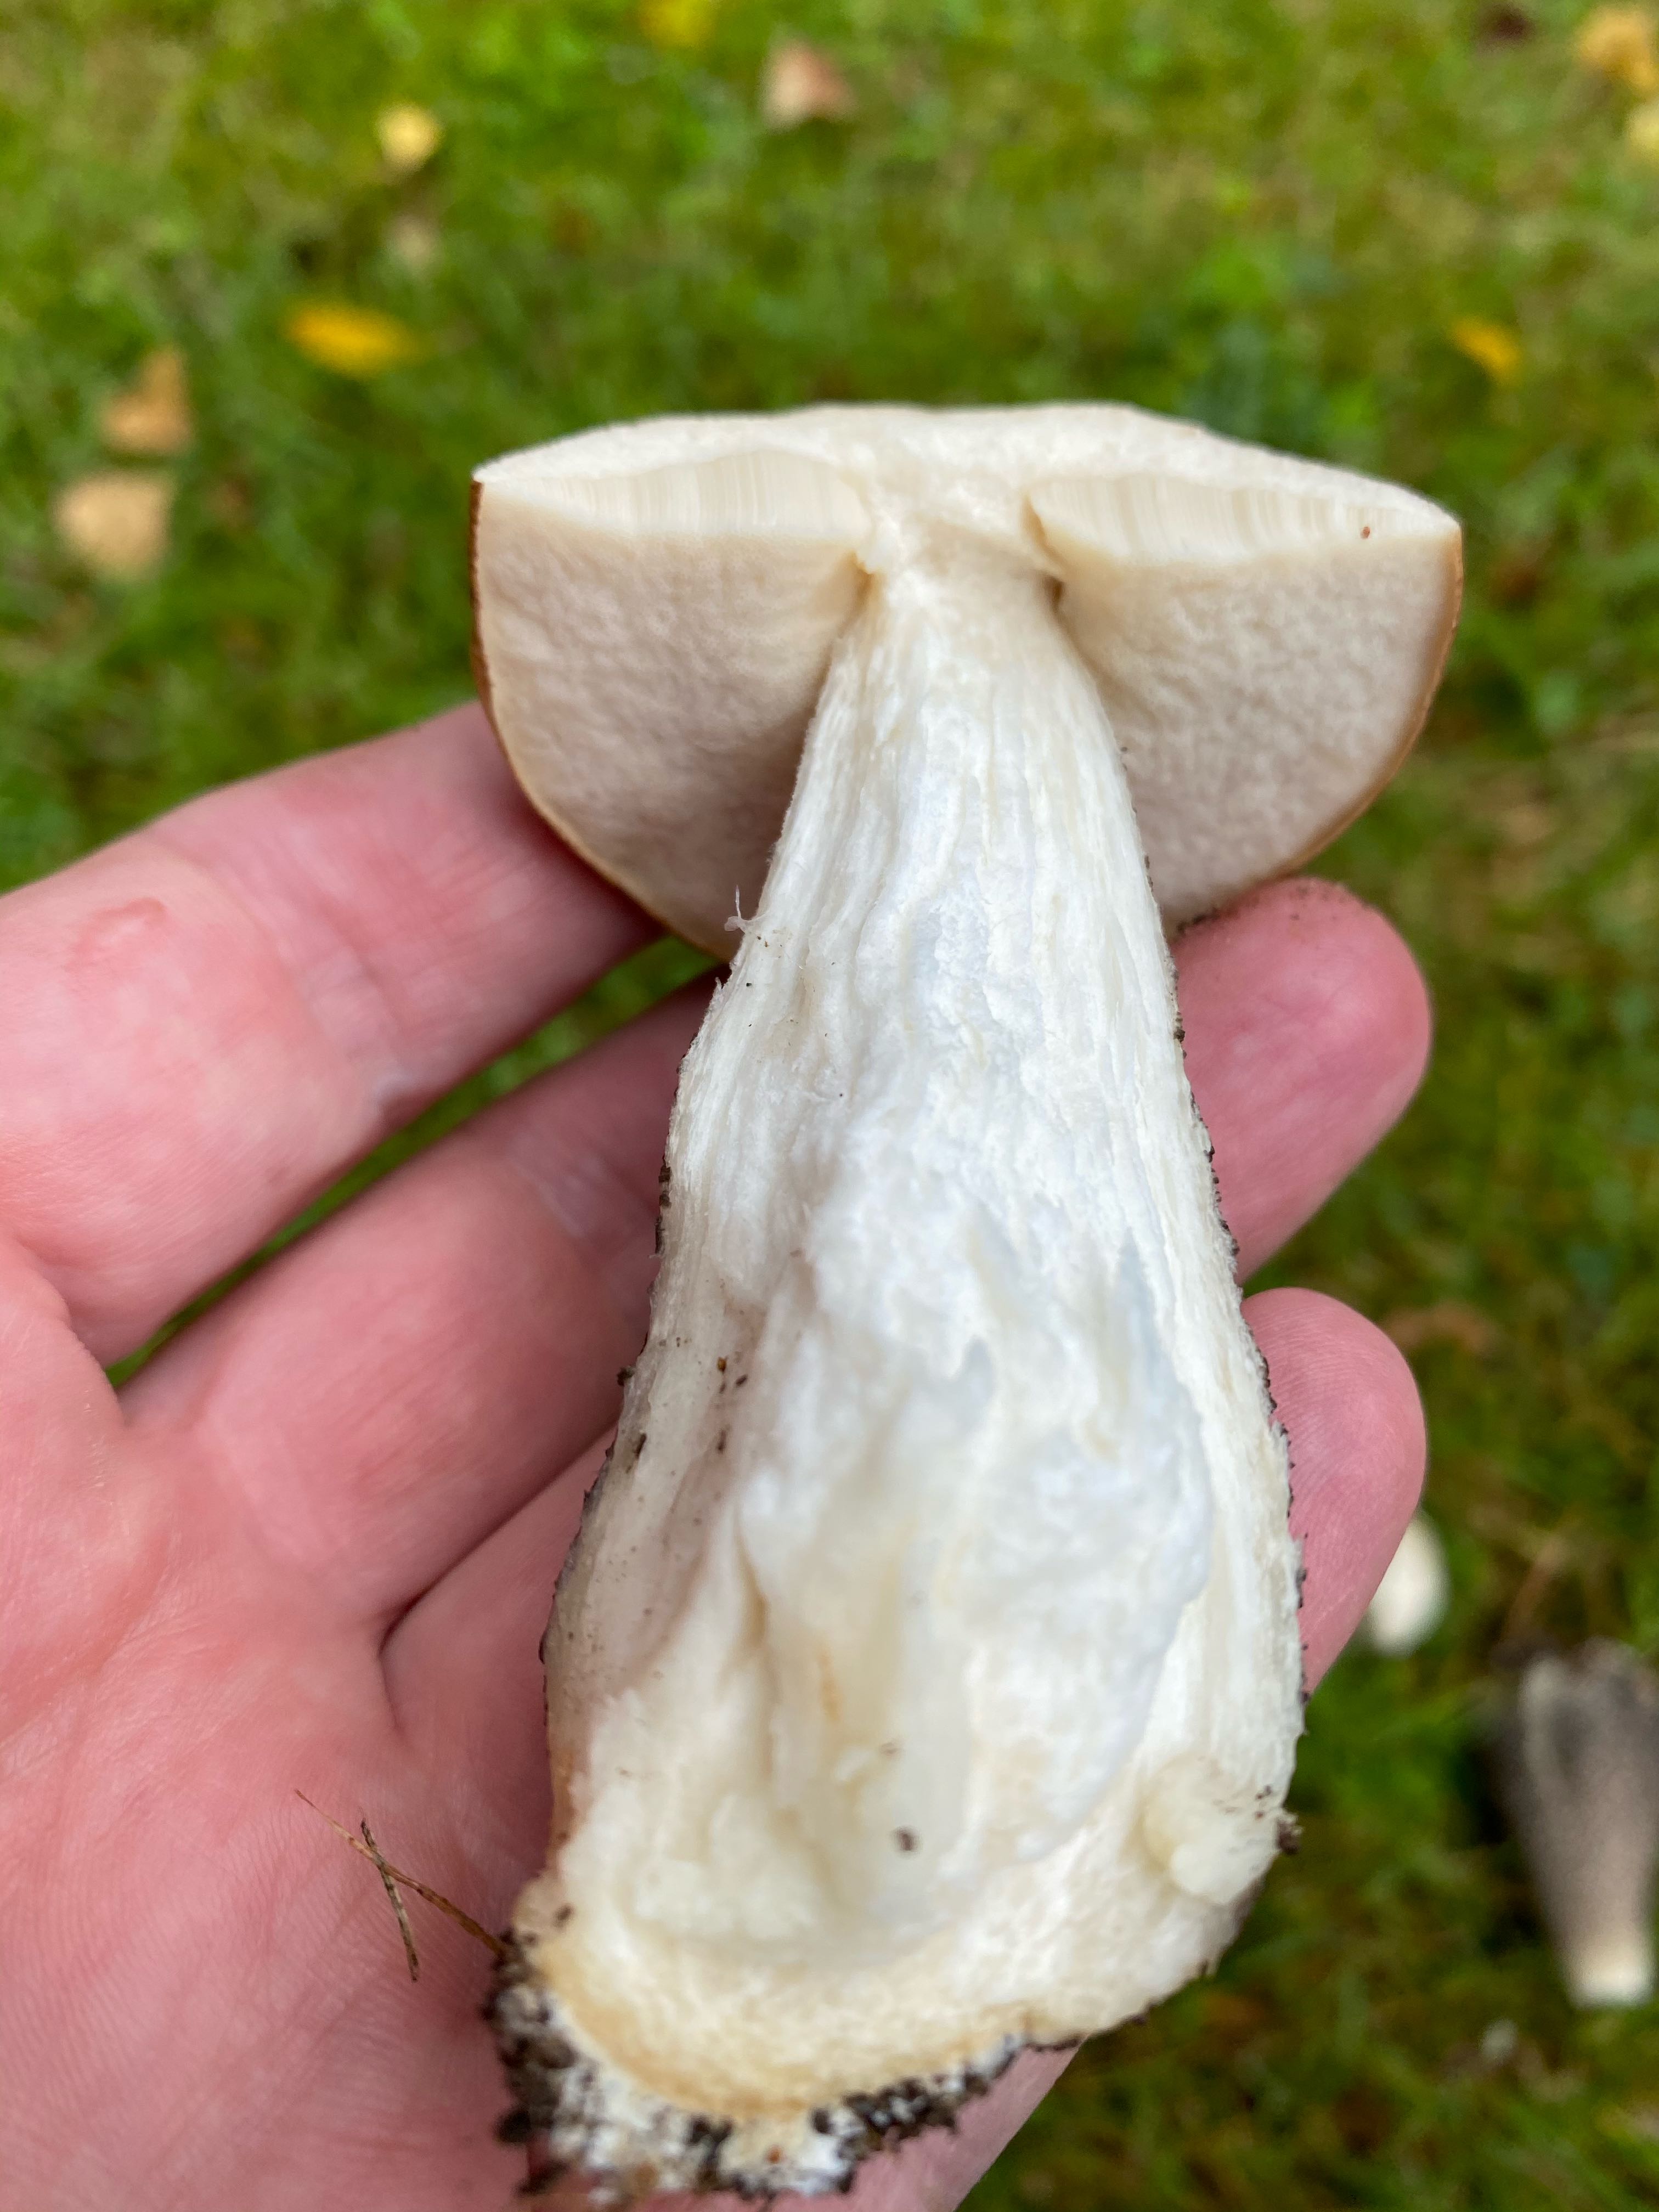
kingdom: Fungi
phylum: Basidiomycota
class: Agaricomycetes
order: Boletales
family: Boletaceae
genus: Leccinum
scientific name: Leccinum scabrum
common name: brun skælrørhat
